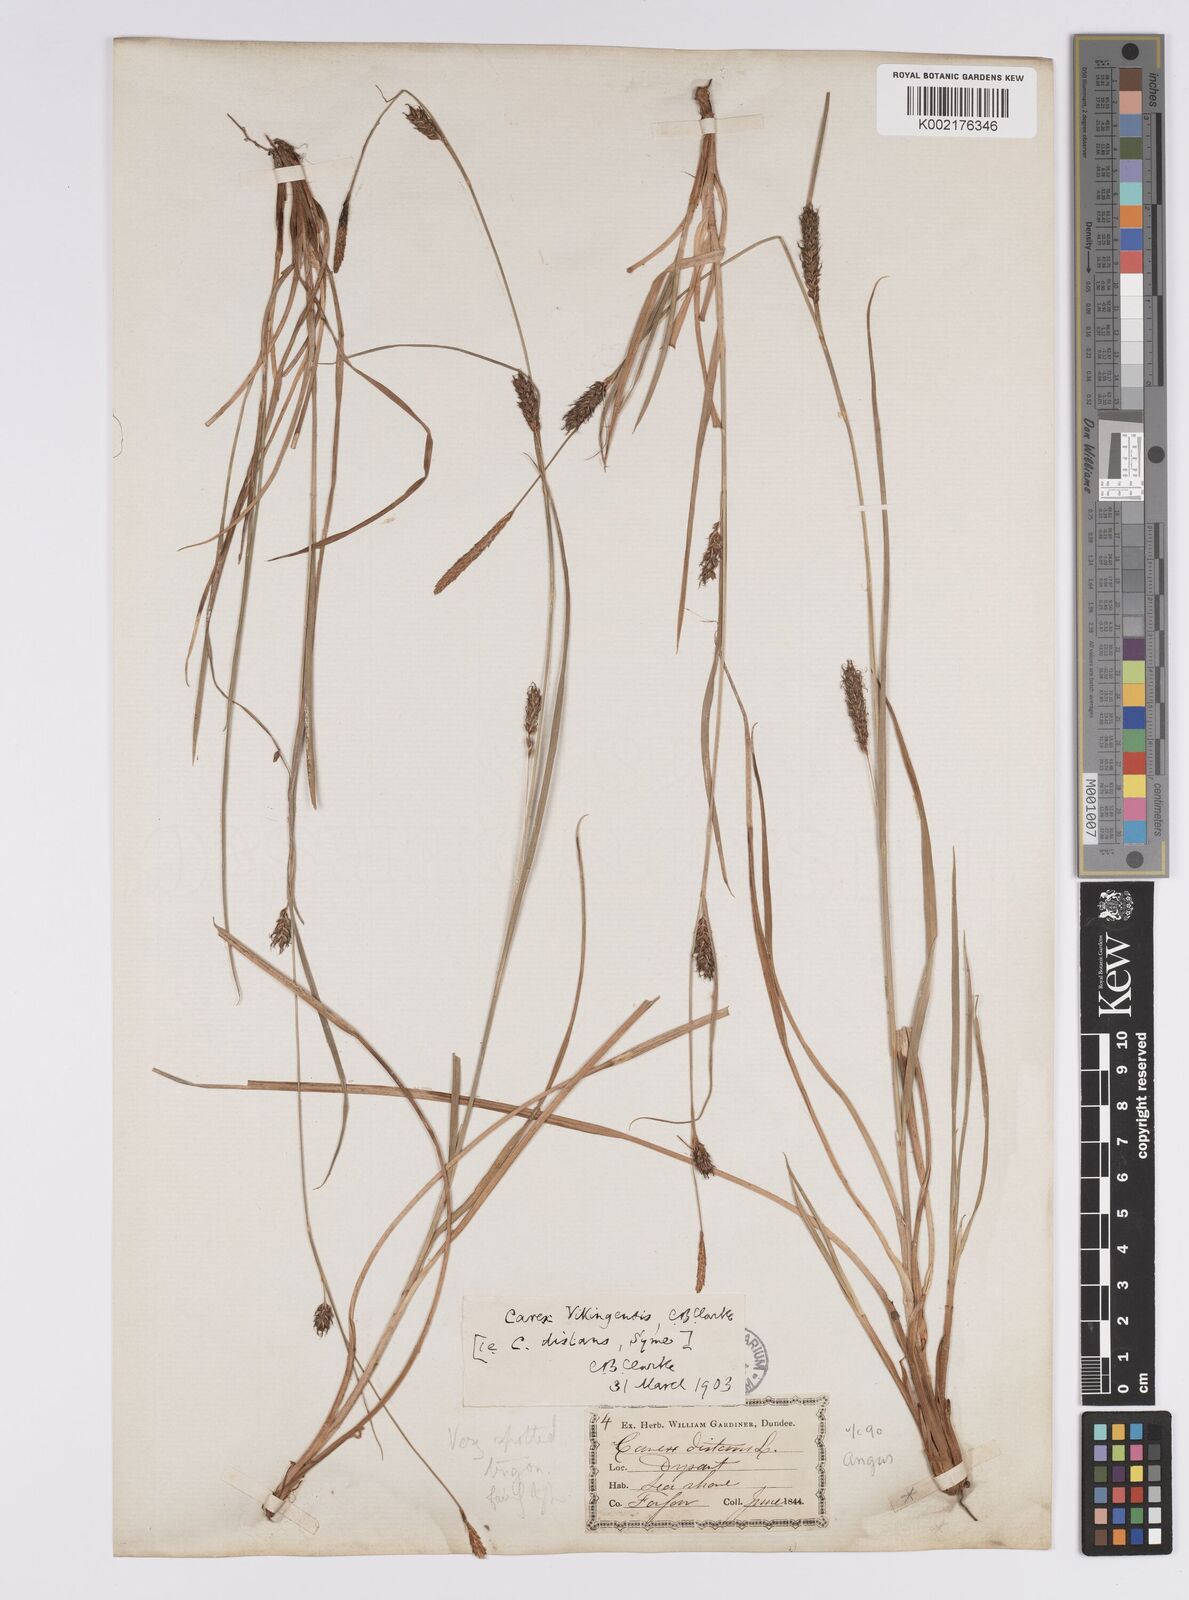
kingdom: Plantae
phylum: Tracheophyta
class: Liliopsida
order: Poales
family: Cyperaceae
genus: Carex
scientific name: Carex distans
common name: Distant sedge
